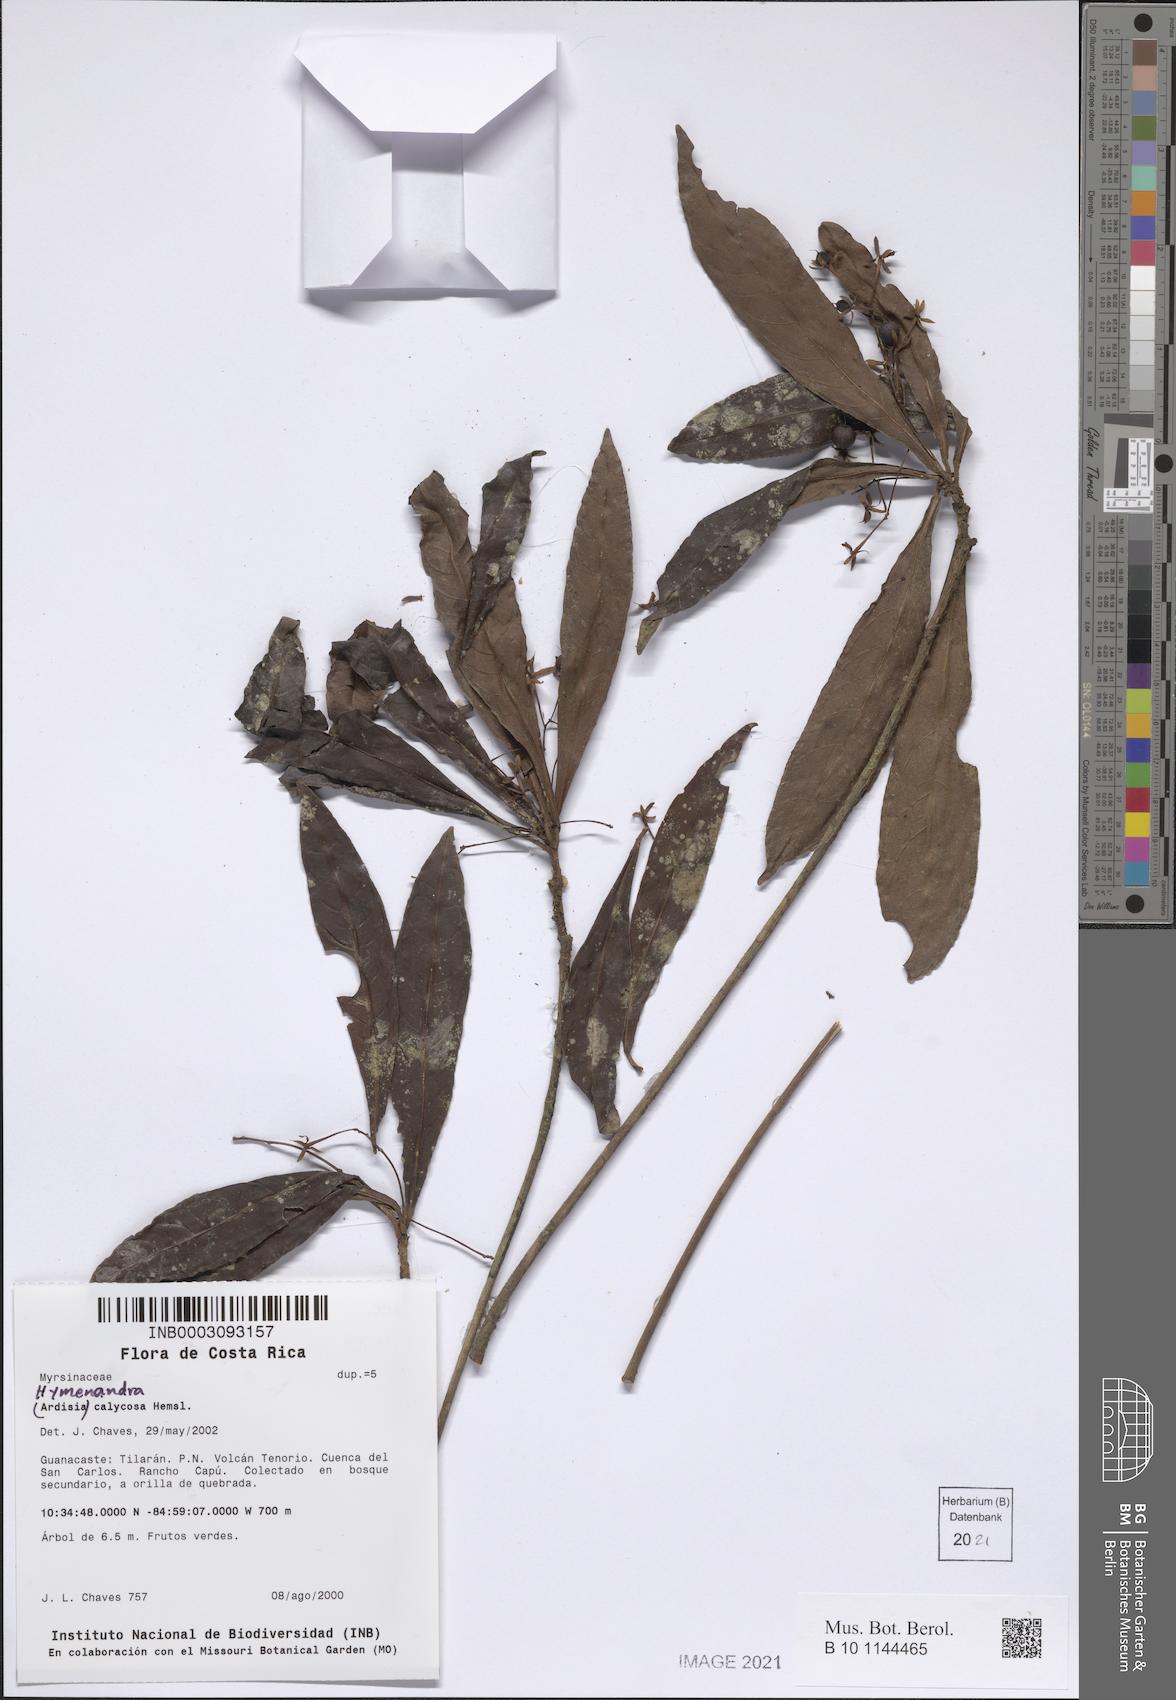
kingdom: Plantae
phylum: Tracheophyta
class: Magnoliopsida
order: Ericales
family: Primulaceae
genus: Hymenandra
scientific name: Hymenandra calycosa
